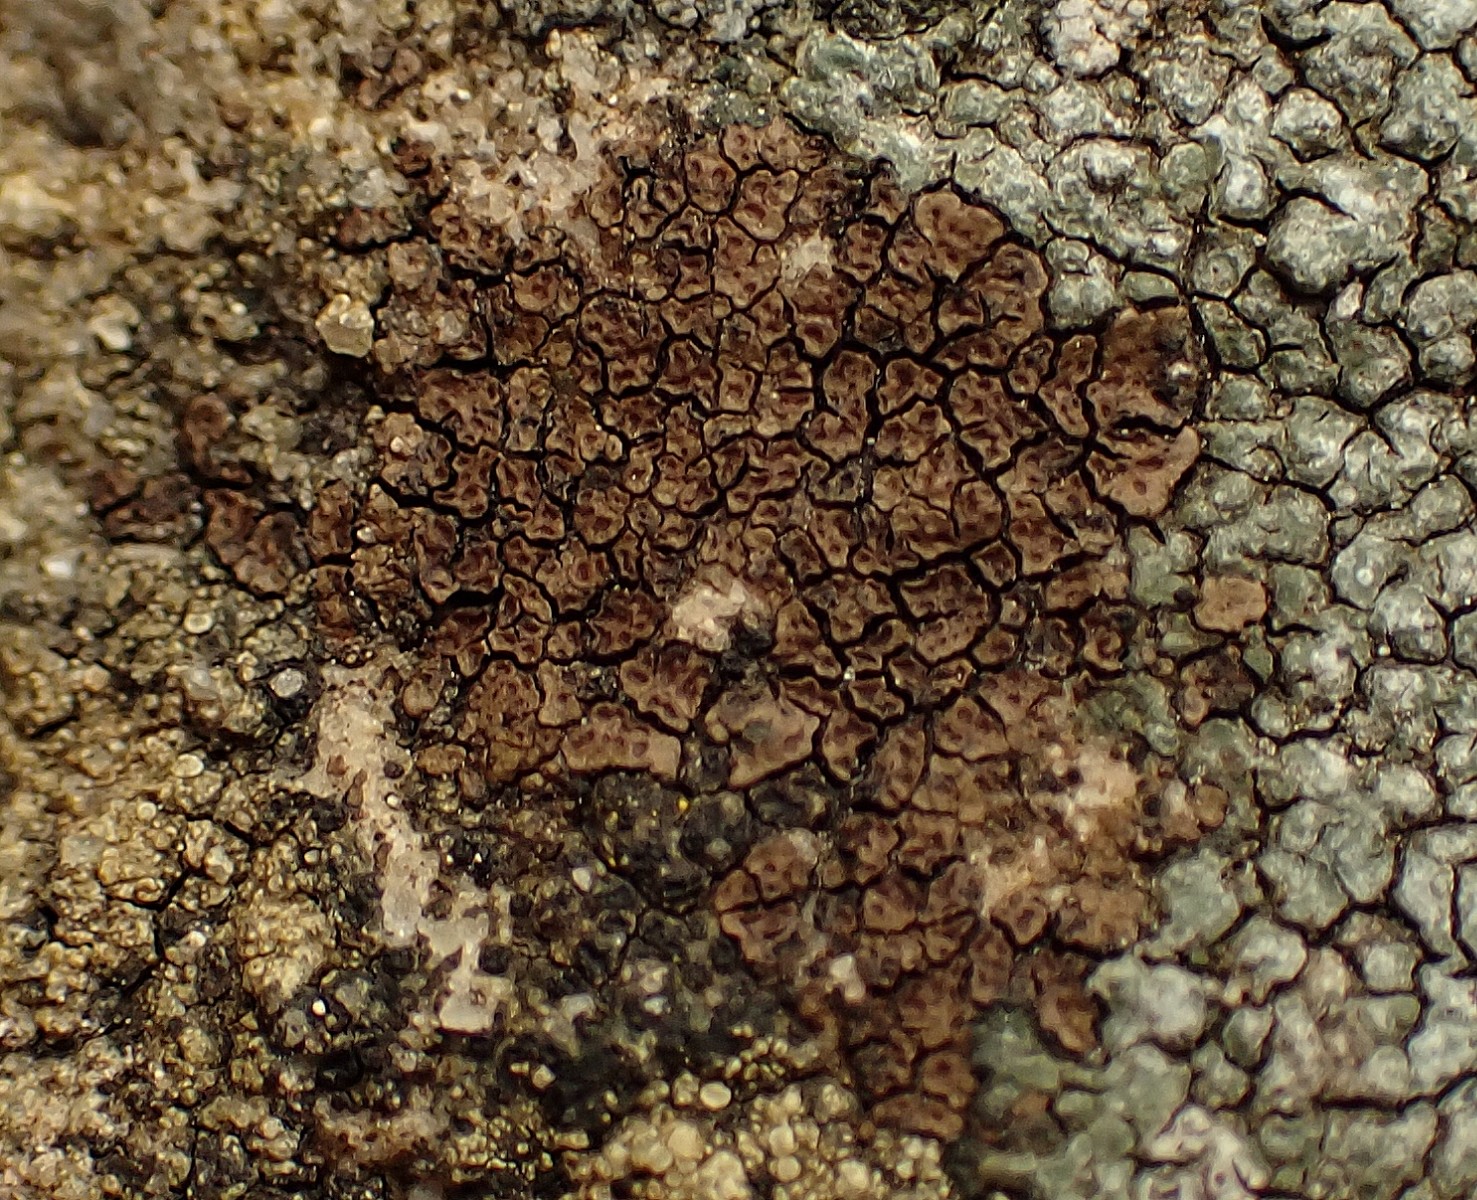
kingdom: Fungi
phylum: Ascomycota
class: Lecanoromycetes
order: Acarosporales
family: Acarosporaceae
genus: Acarospora
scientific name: Acarospora fuscata
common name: brun småsporelav
